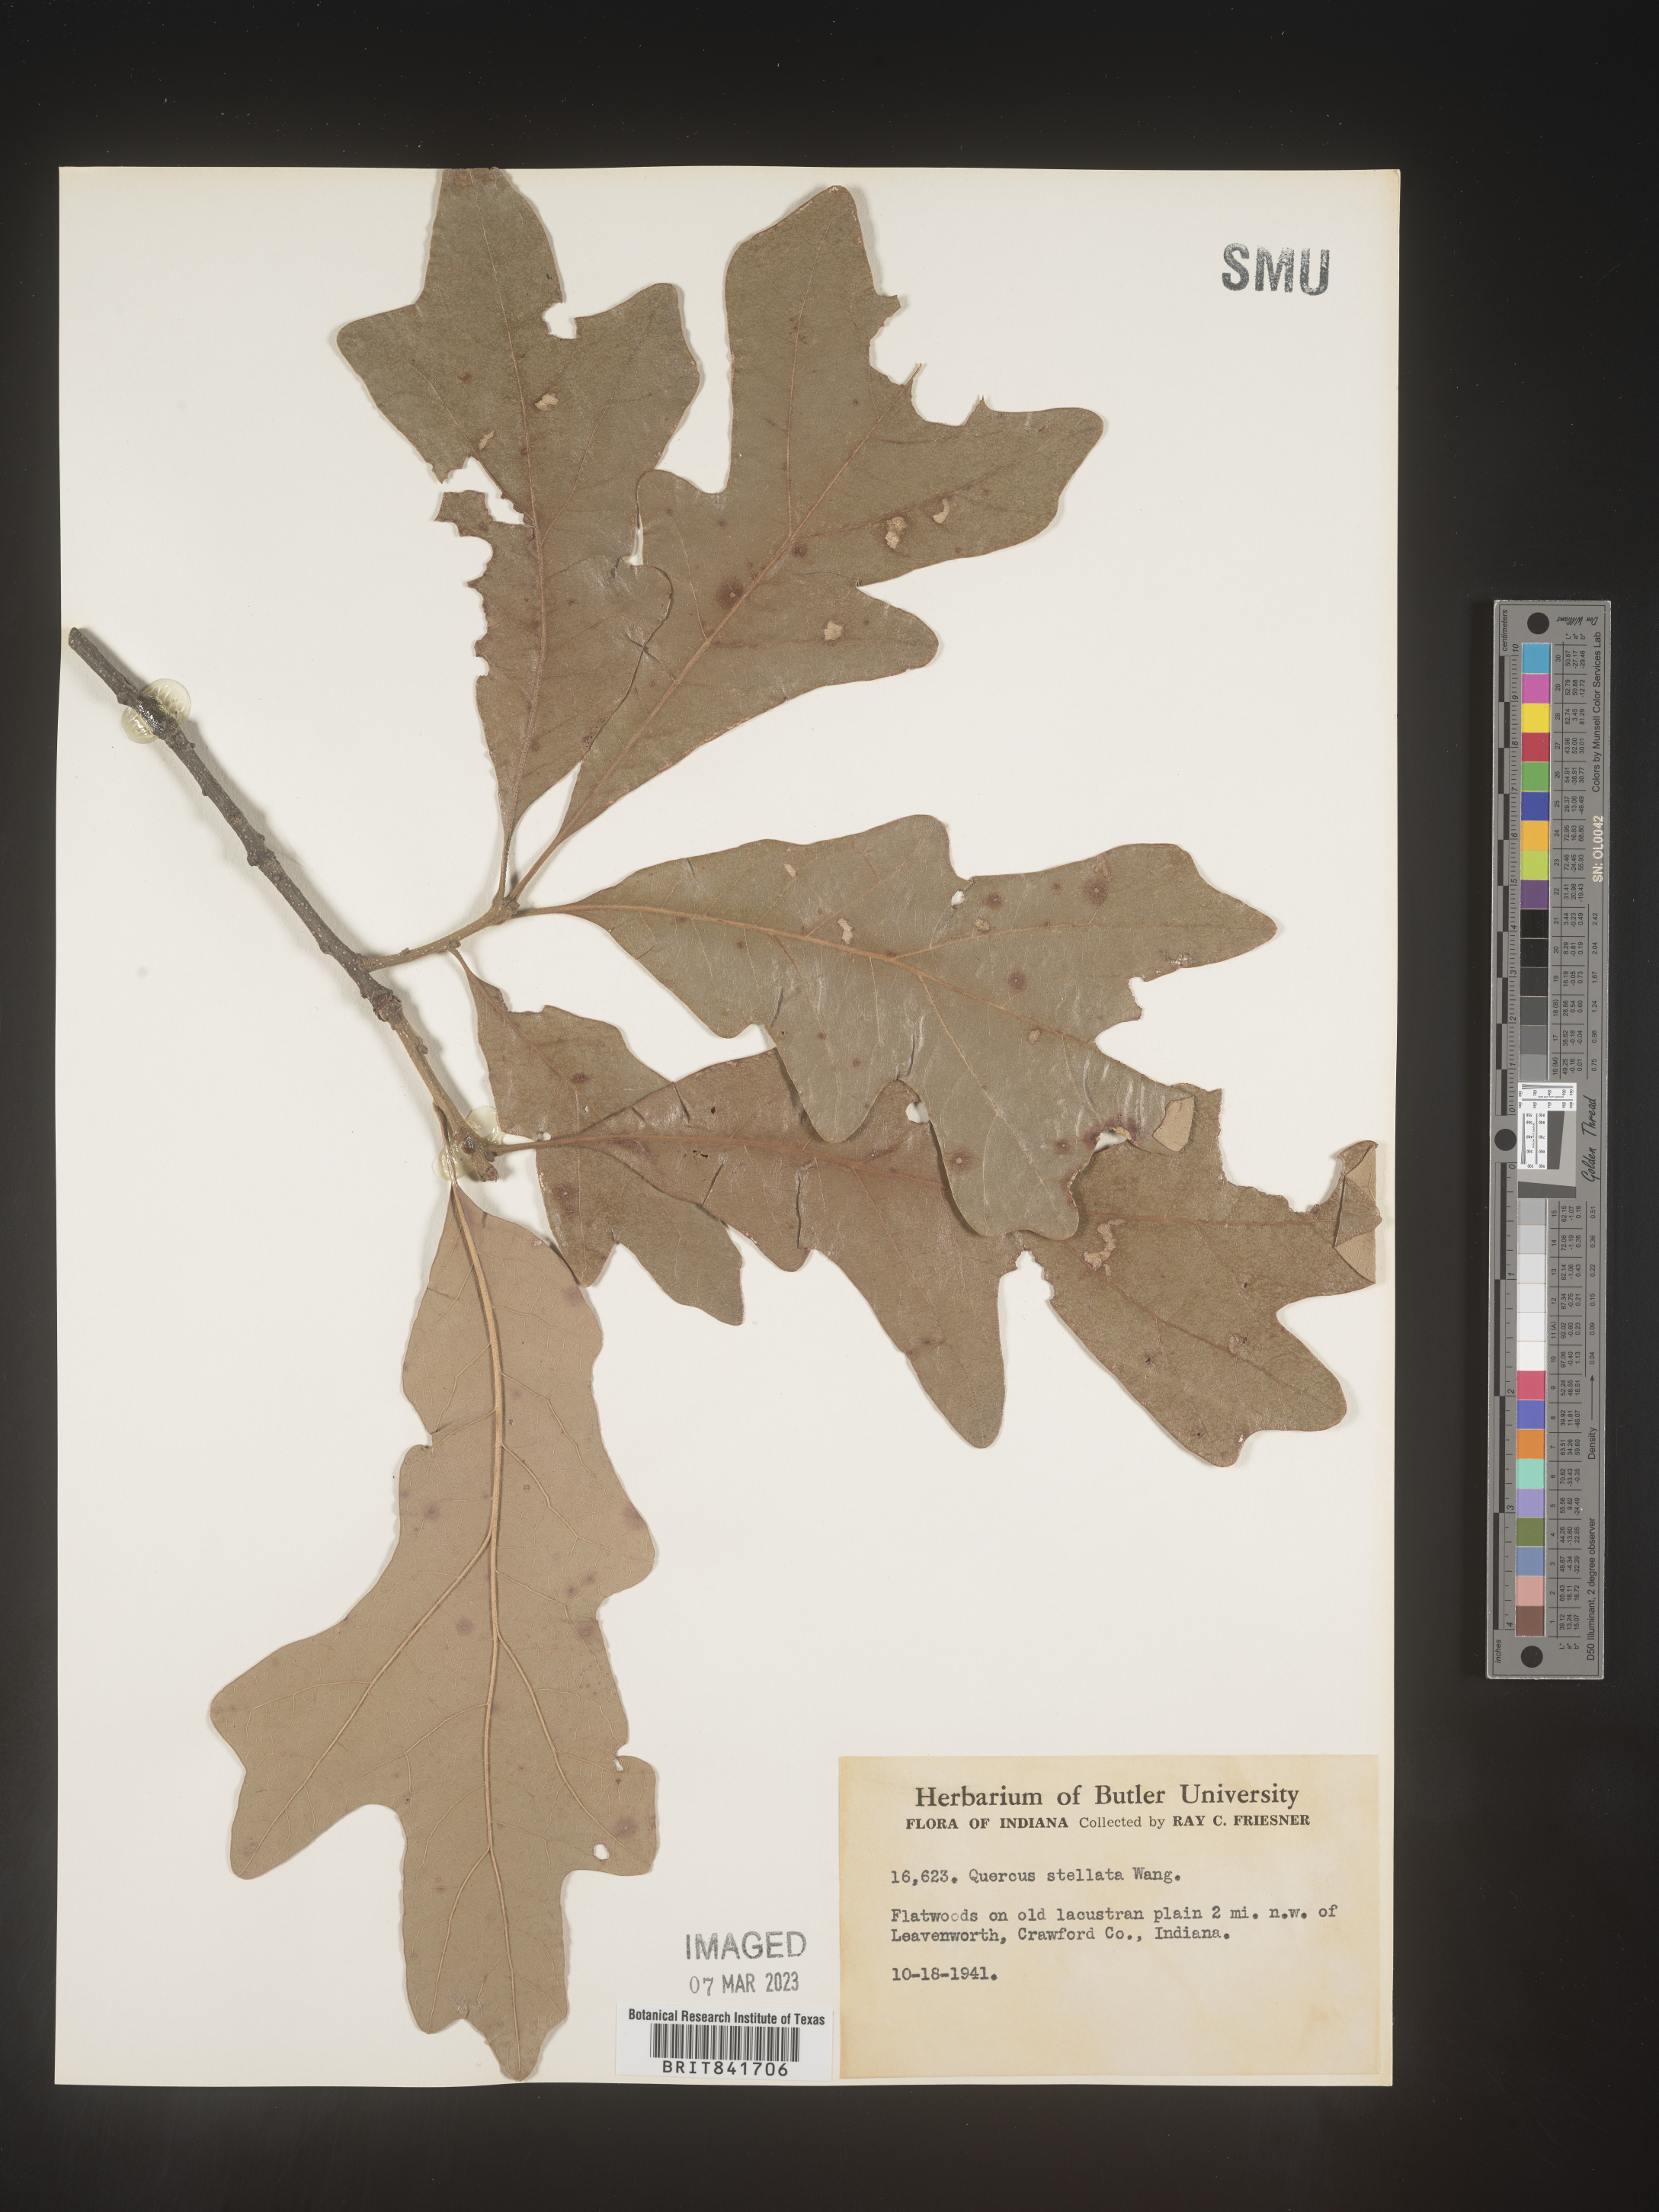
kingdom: Plantae
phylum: Tracheophyta
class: Magnoliopsida
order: Fagales
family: Fagaceae
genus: Quercus
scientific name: Quercus stellata
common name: Post oak
